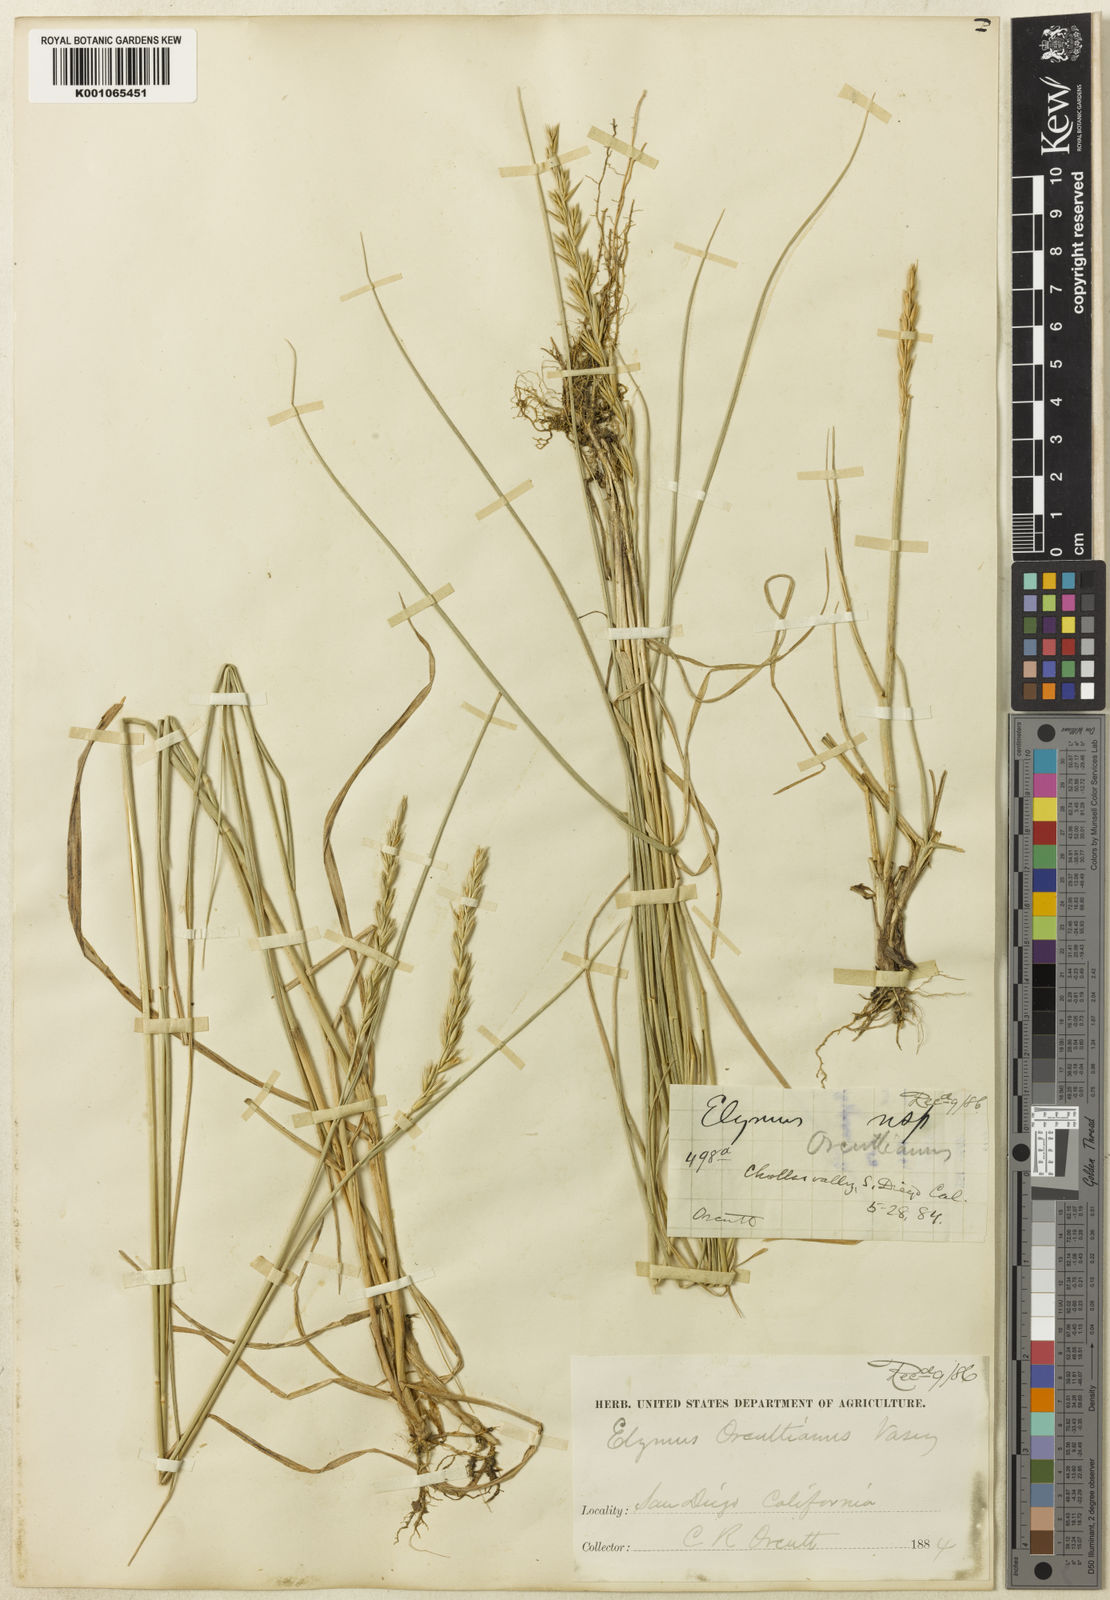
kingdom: Plantae
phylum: Tracheophyta
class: Liliopsida
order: Poales
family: Poaceae
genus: Leymus
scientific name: Leymus triticoides
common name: Beardless wild rye
